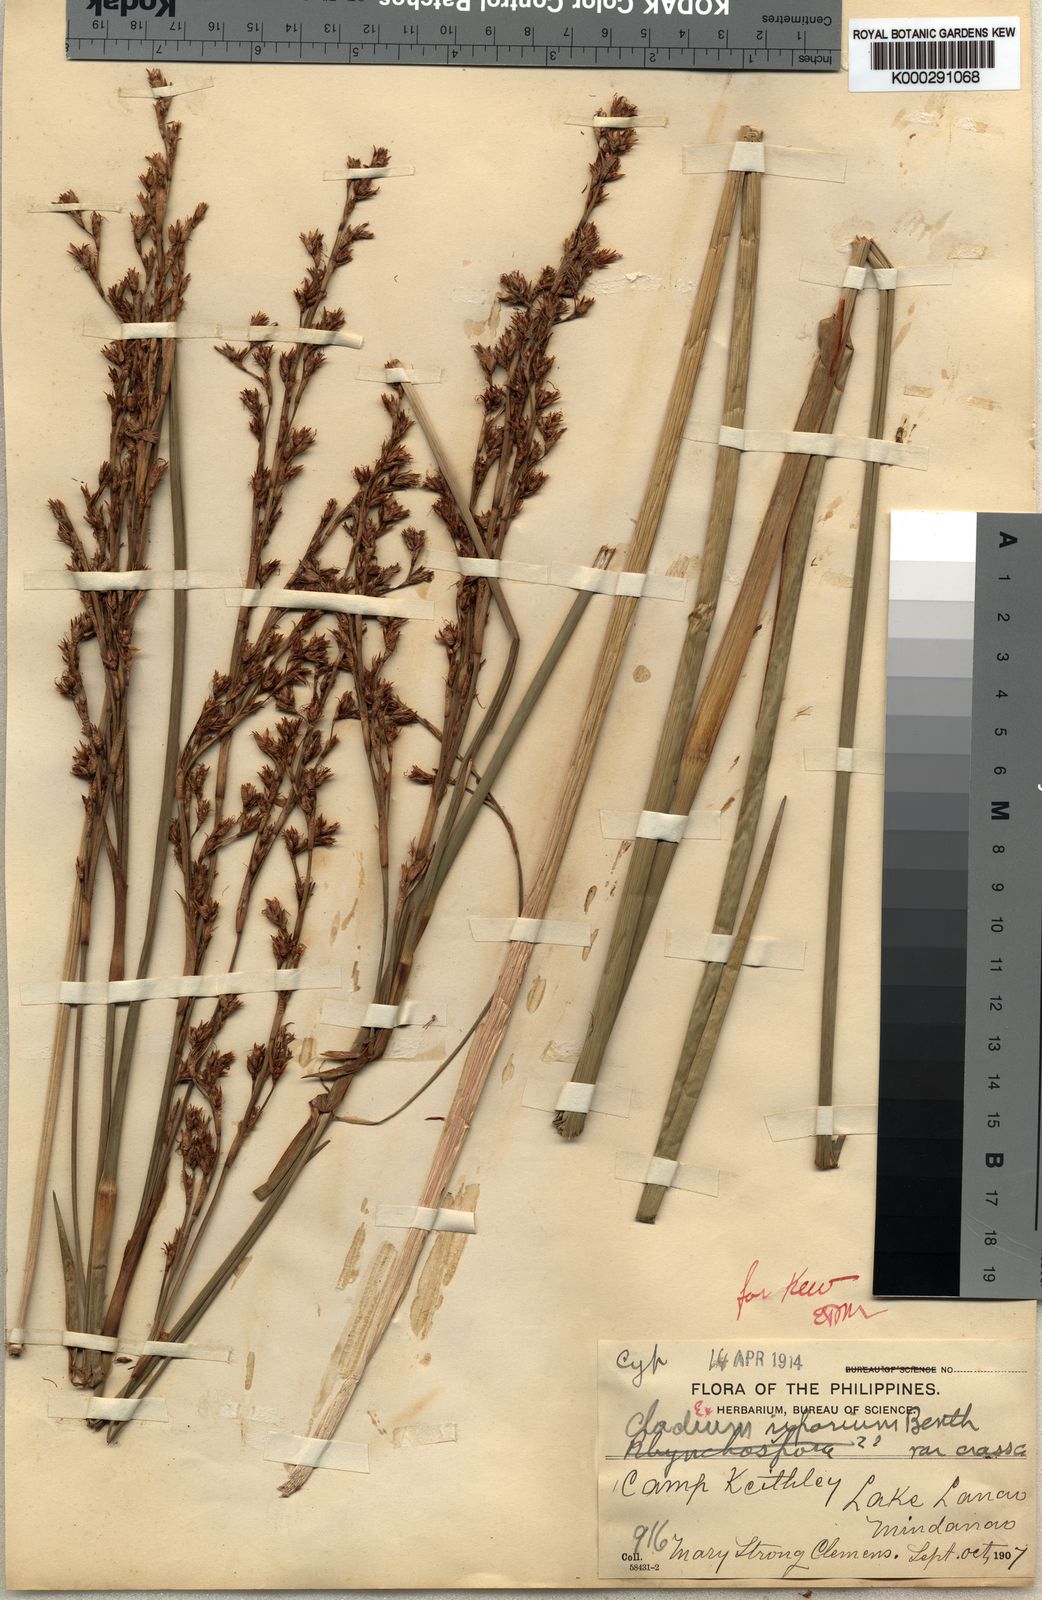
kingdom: Plantae
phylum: Tracheophyta
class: Liliopsida
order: Poales
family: Cyperaceae
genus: Machaerina
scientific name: Machaerina rubiginosa
